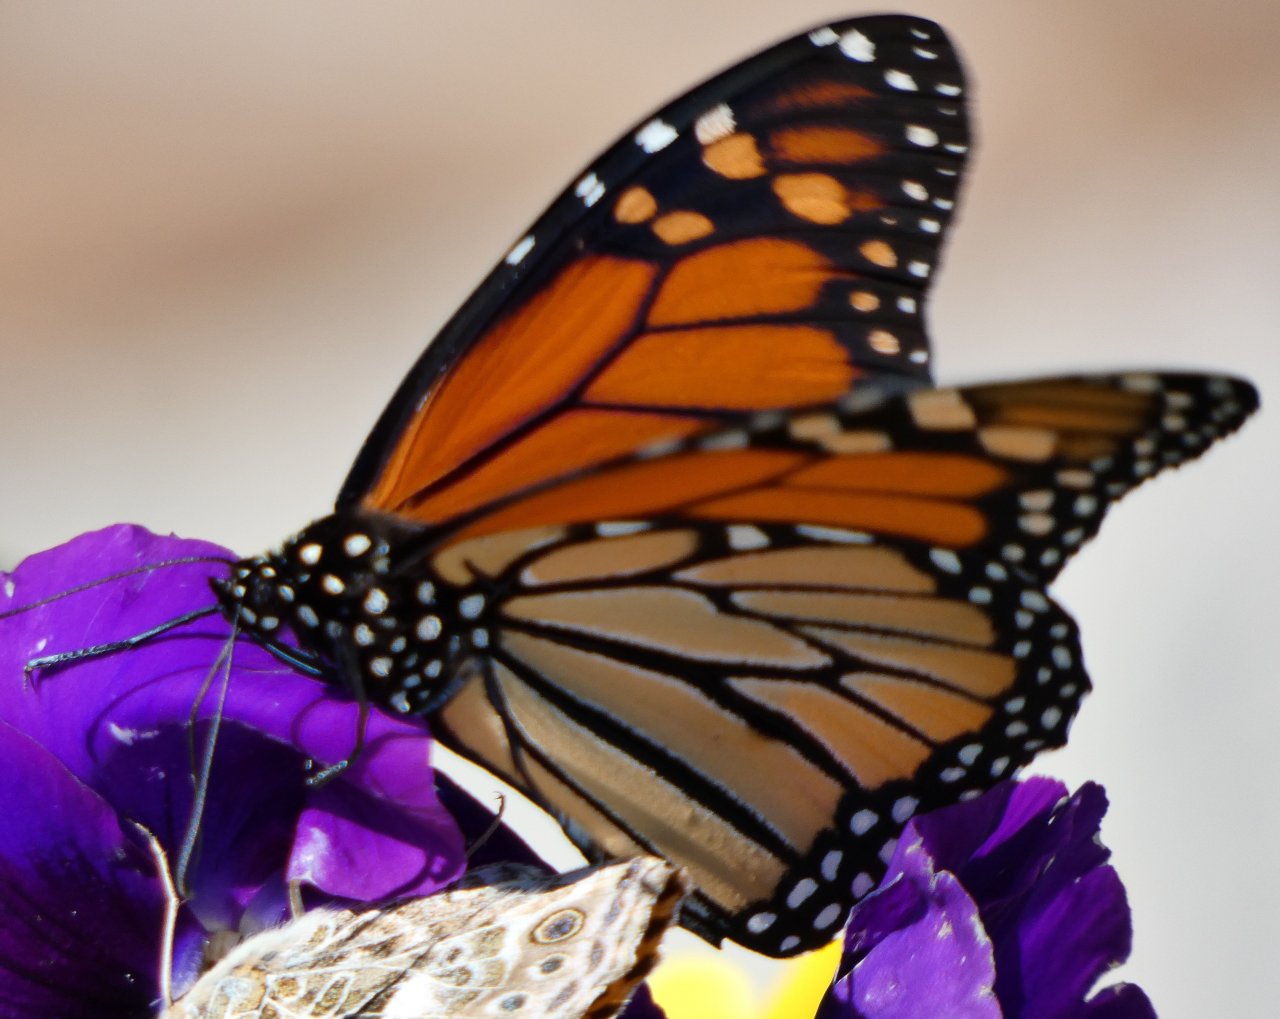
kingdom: Animalia
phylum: Arthropoda
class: Insecta
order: Lepidoptera
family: Nymphalidae
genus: Danaus
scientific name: Danaus plexippus
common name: Monarch
